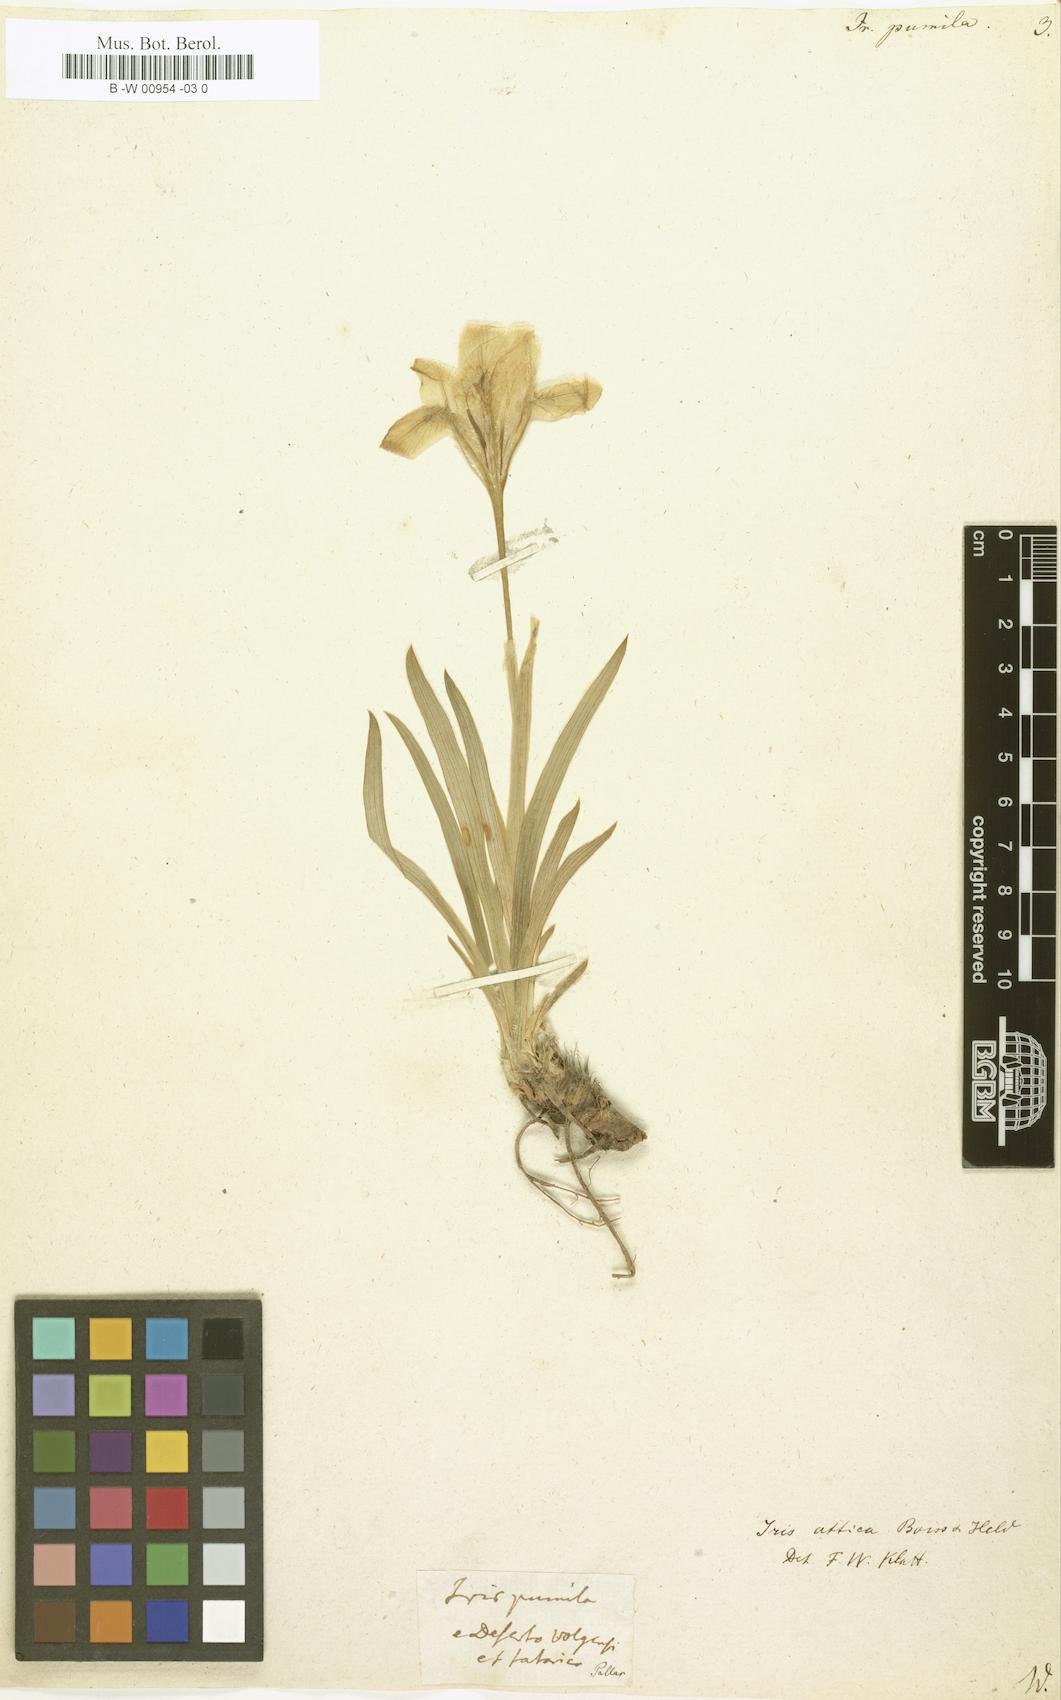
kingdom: Plantae
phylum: Tracheophyta
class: Liliopsida
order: Asparagales
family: Iridaceae
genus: Iris
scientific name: Iris pumila
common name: Dwarf iris
